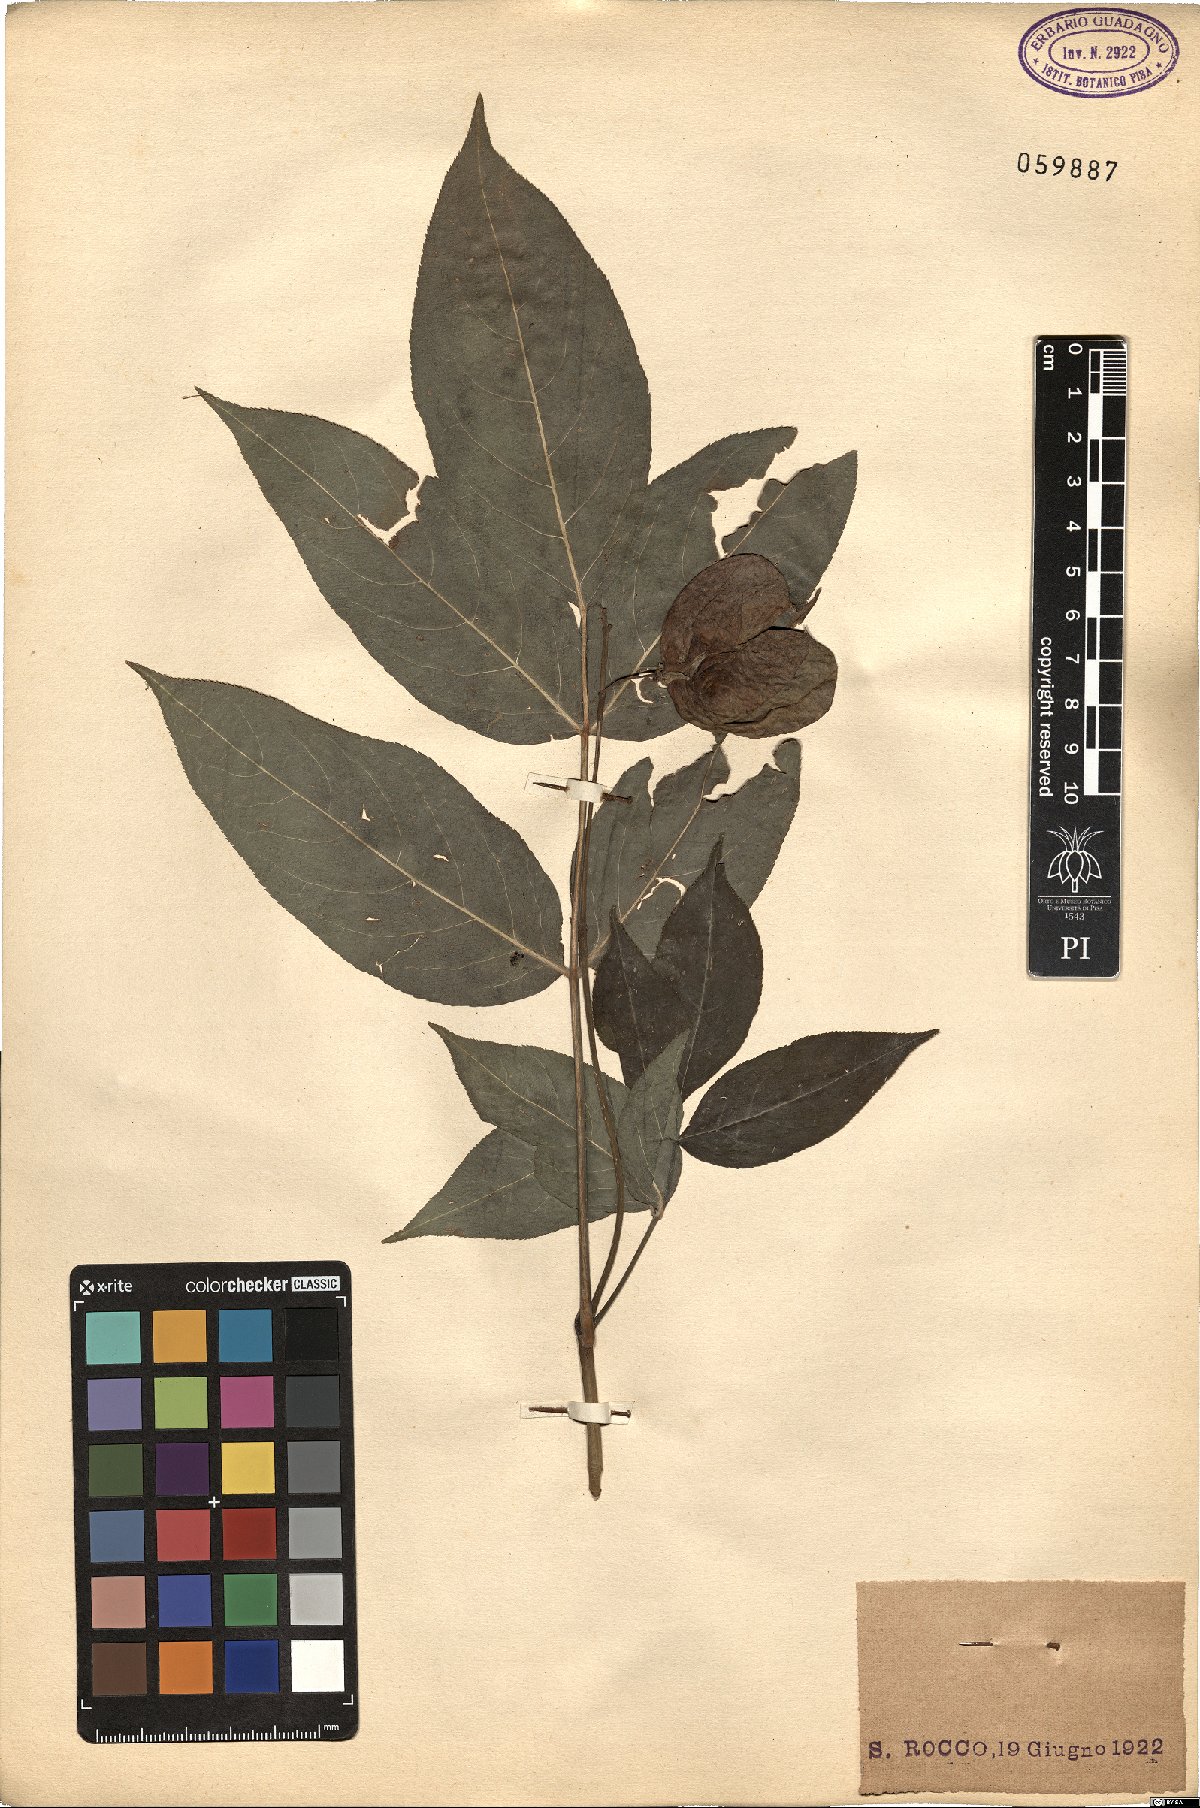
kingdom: Plantae
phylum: Tracheophyta
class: Magnoliopsida
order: Crossosomatales
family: Staphyleaceae
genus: Staphylea
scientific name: Staphylea pinnata
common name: Bladdernut
